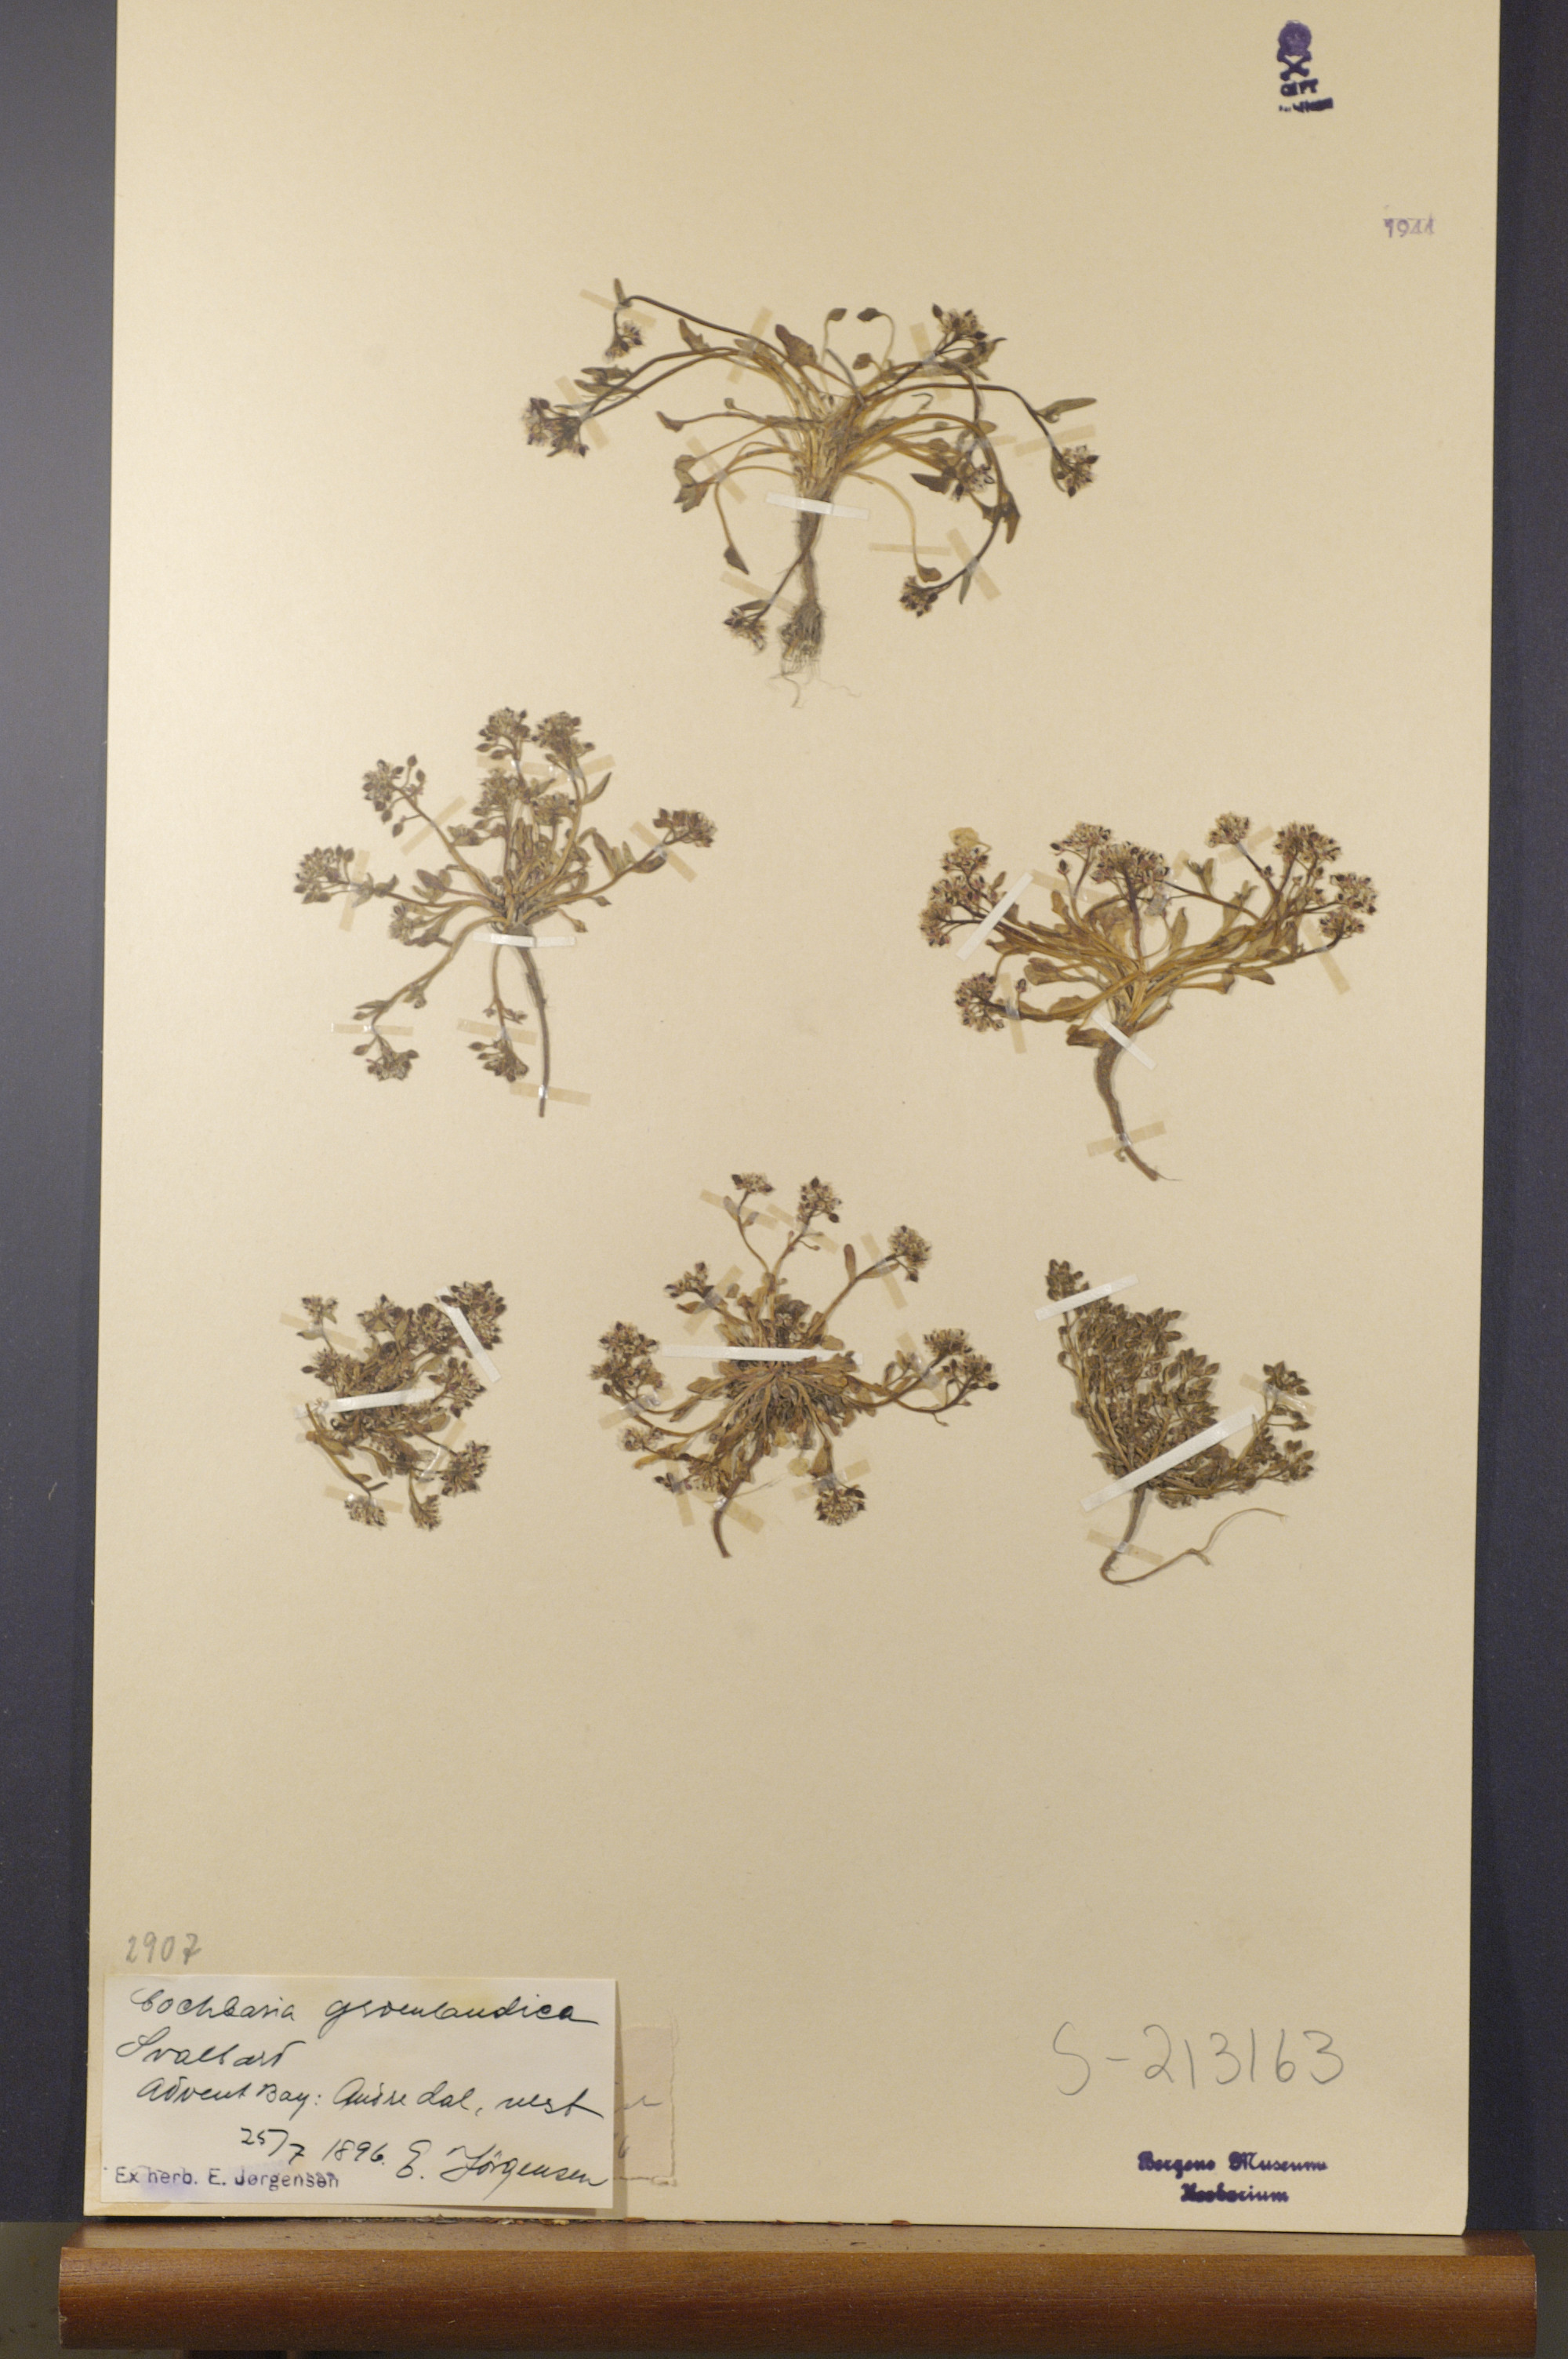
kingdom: Plantae
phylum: Tracheophyta
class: Magnoliopsida
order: Brassicales
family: Brassicaceae
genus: Cochlearia
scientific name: Cochlearia groenlandica
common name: Danish scurvygrass
